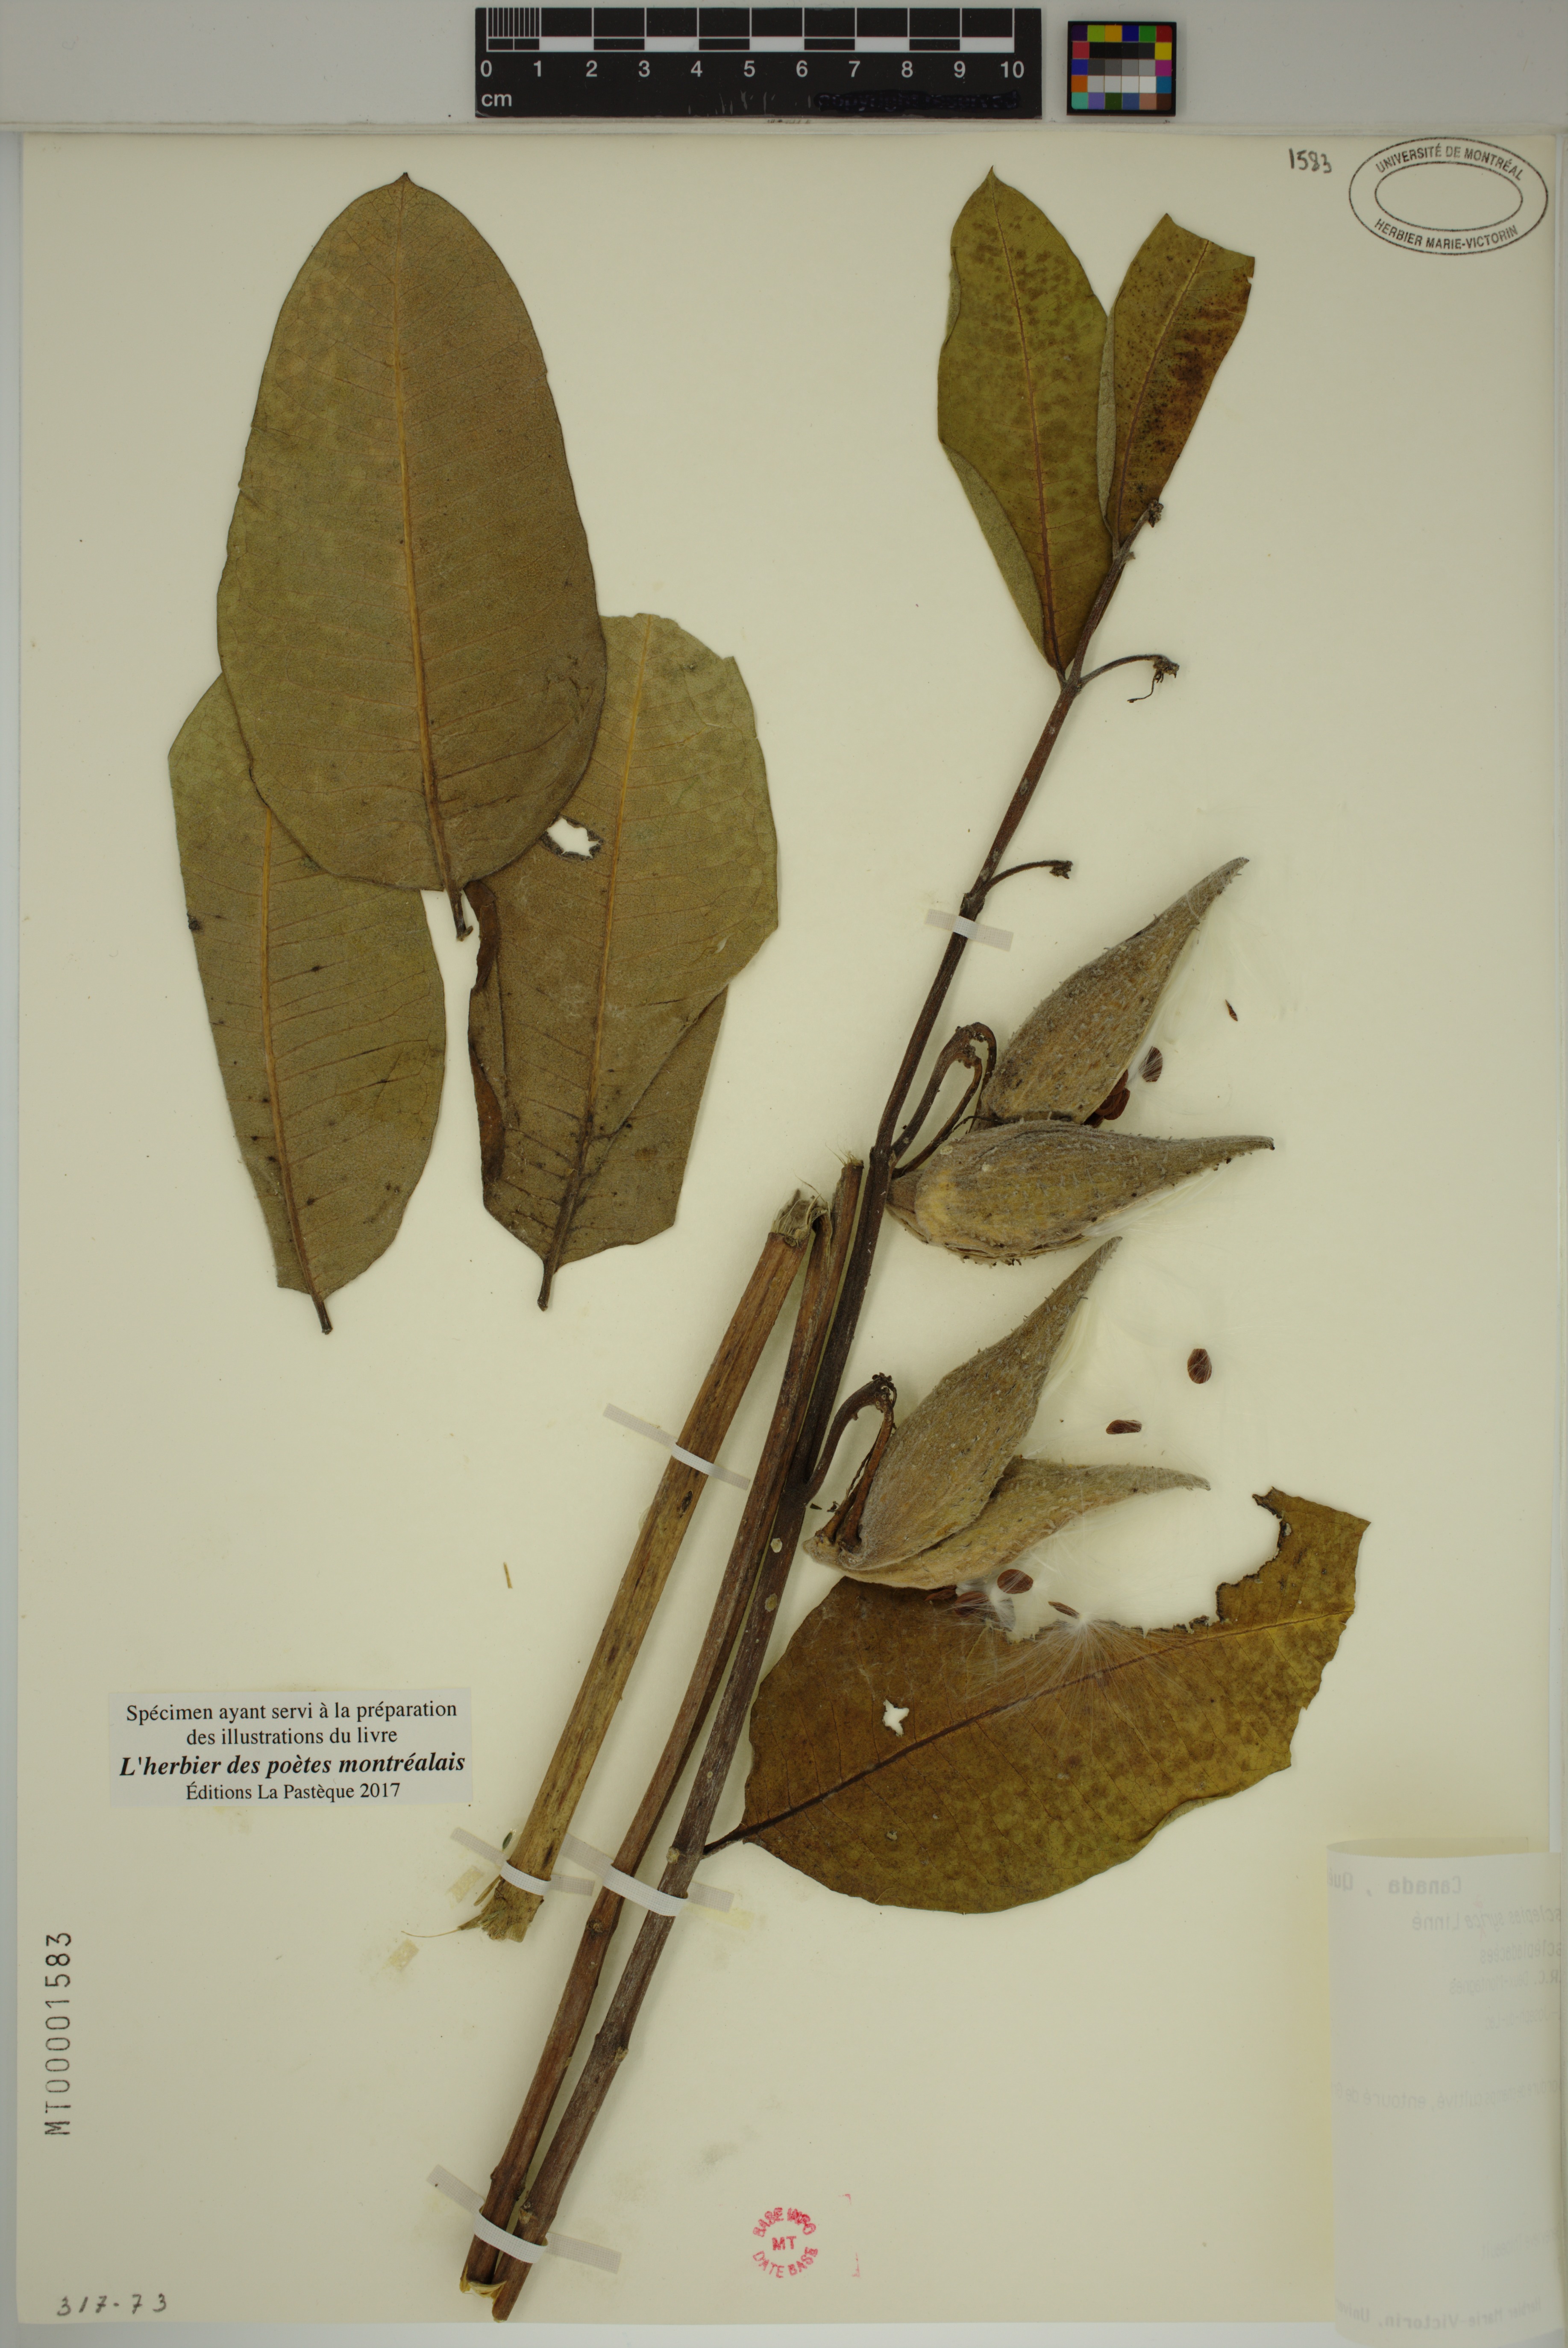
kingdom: Plantae
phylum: Tracheophyta
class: Magnoliopsida
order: Gentianales
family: Apocynaceae
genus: Asclepias
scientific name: Asclepias syriaca
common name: Common milkweed
